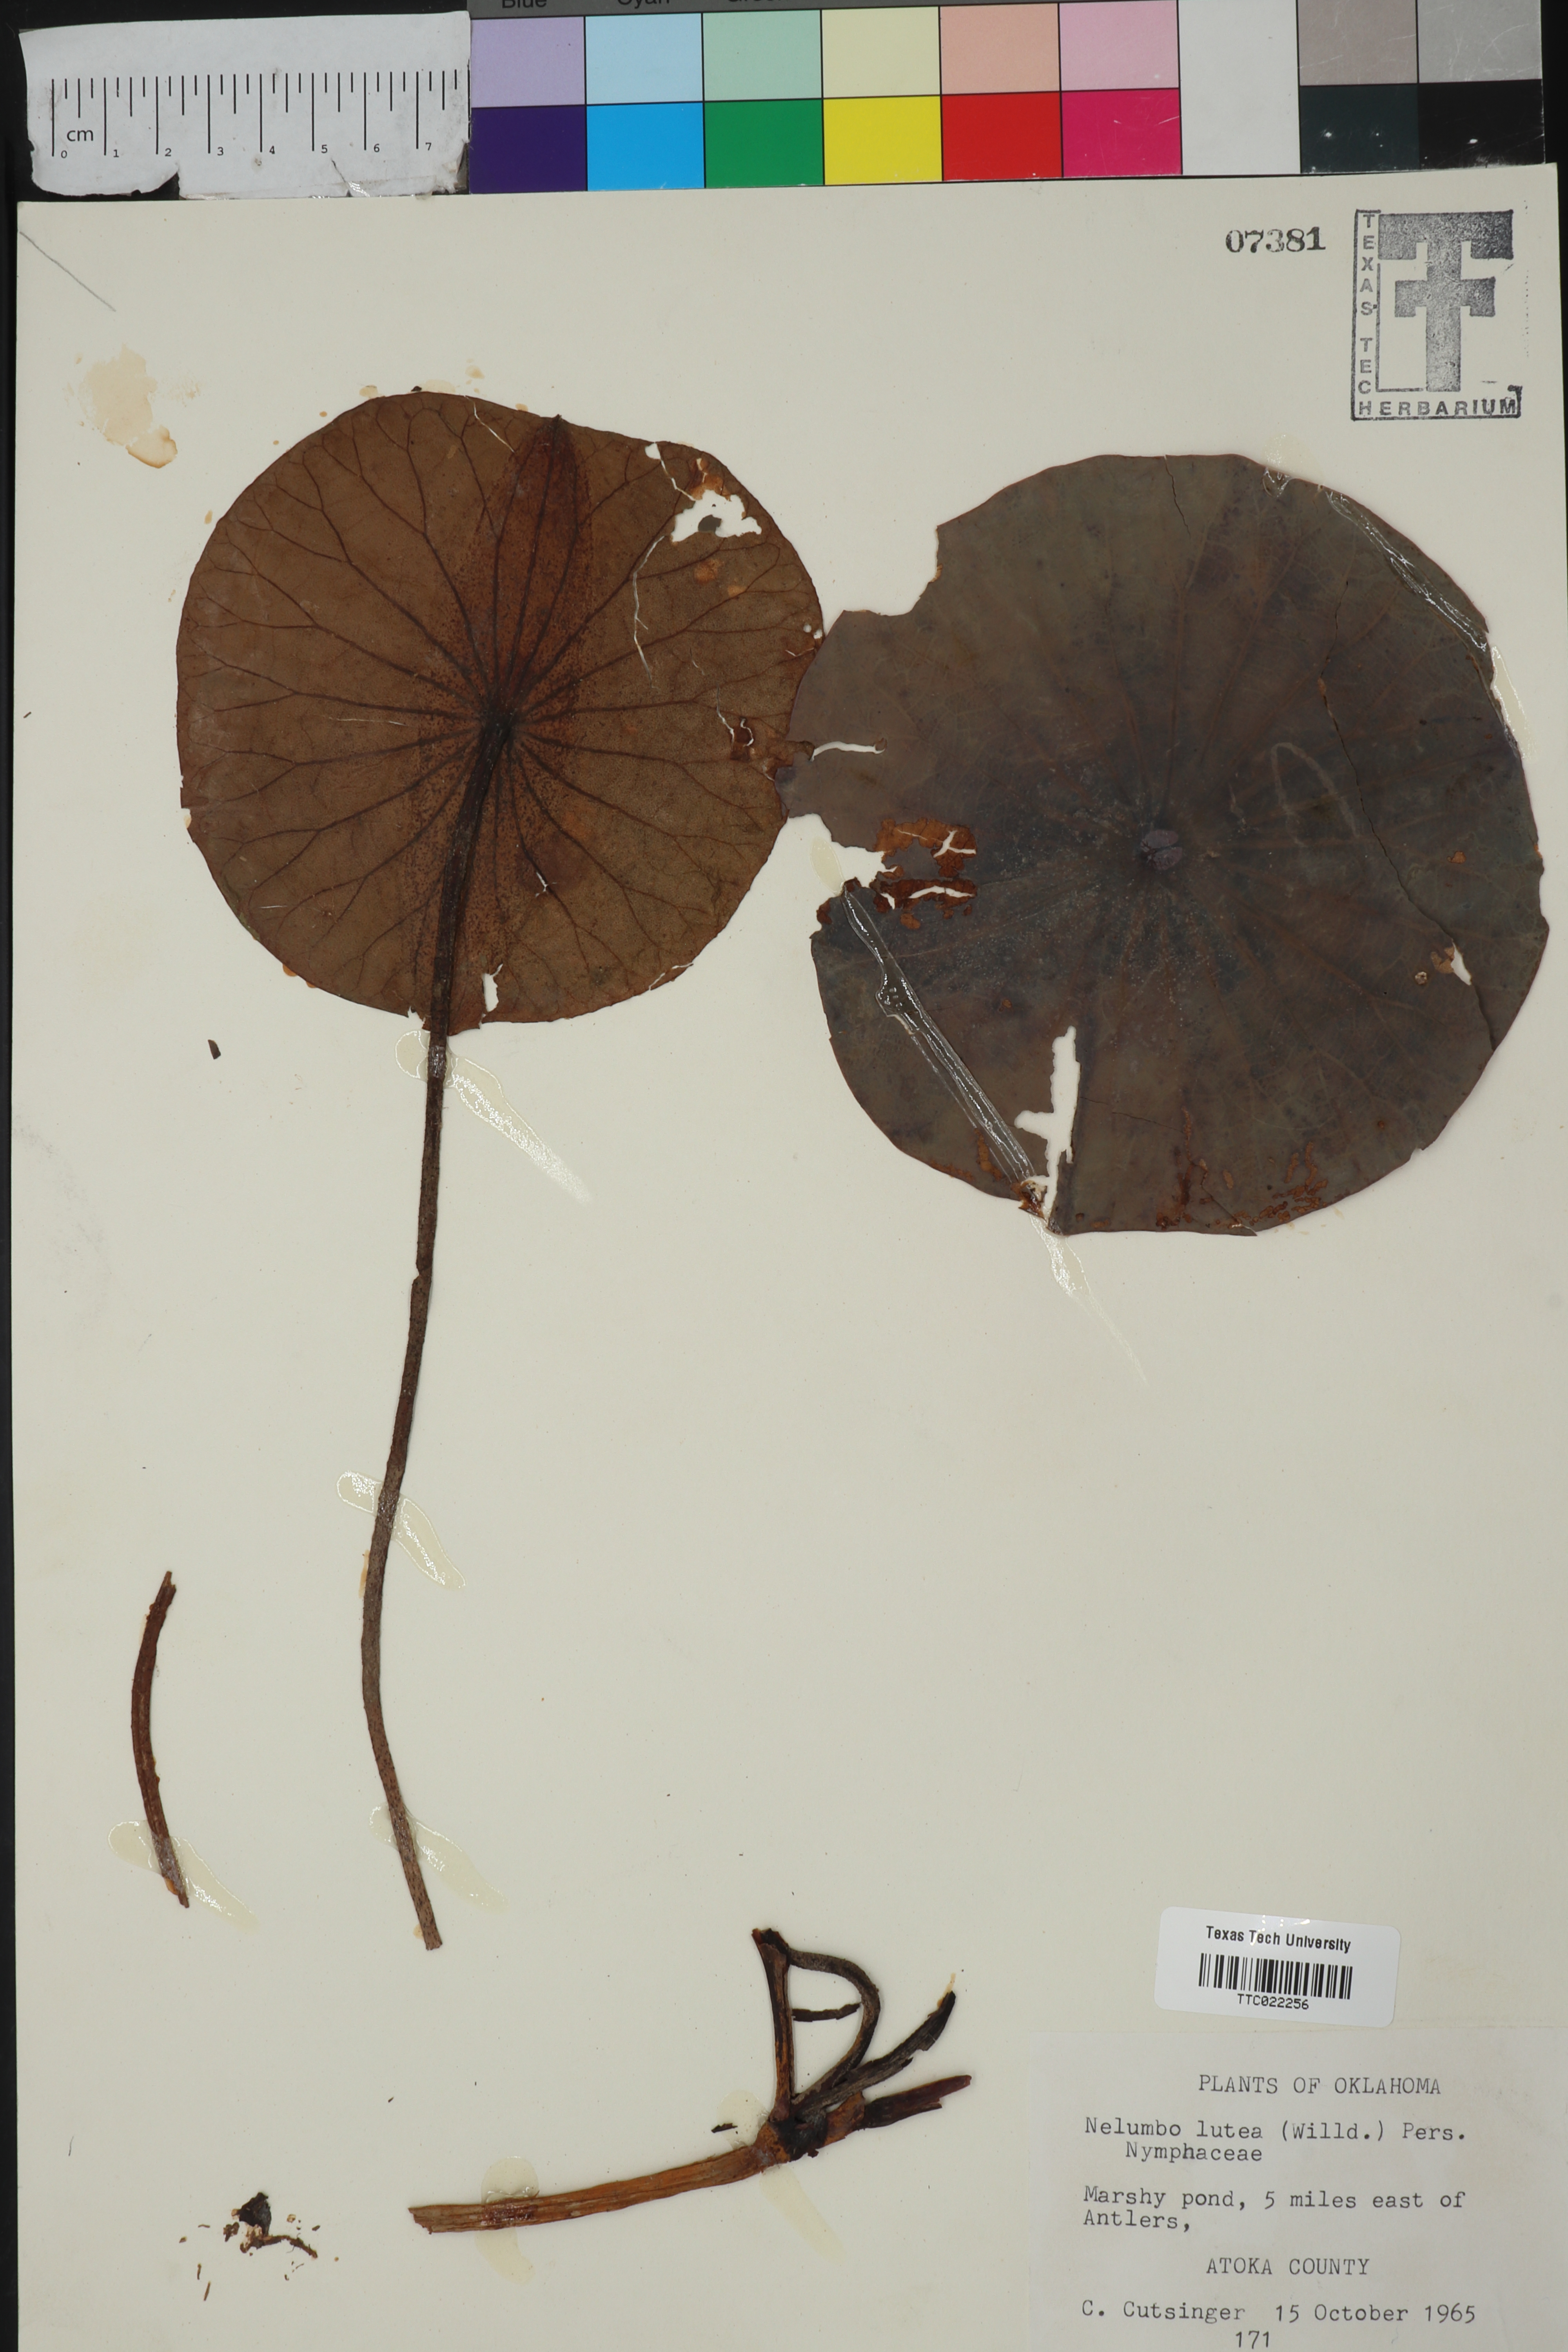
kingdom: Plantae
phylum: Tracheophyta
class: Magnoliopsida
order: Proteales
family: Nelumbonaceae
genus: Nelumbo
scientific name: Nelumbo lutea
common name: American lotus
